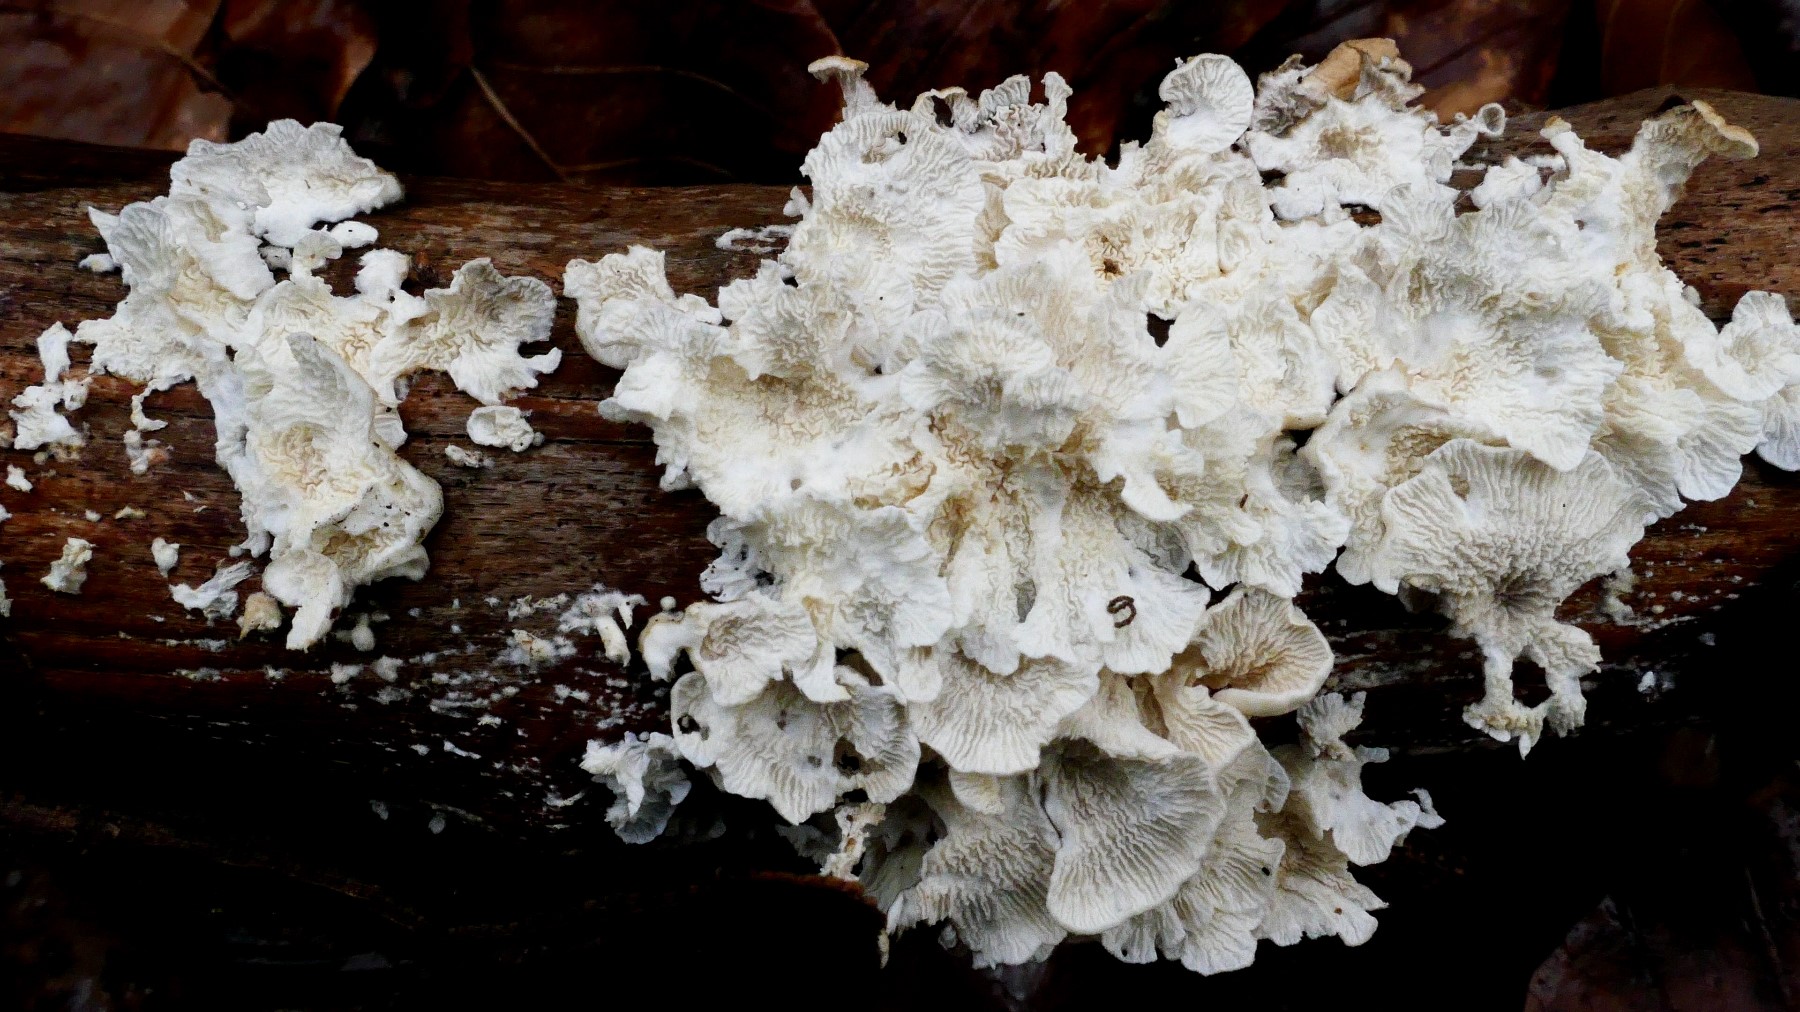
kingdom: Fungi
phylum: Basidiomycota
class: Agaricomycetes
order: Amylocorticiales
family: Amylocorticiaceae
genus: Plicaturopsis
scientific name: Plicaturopsis crispa
